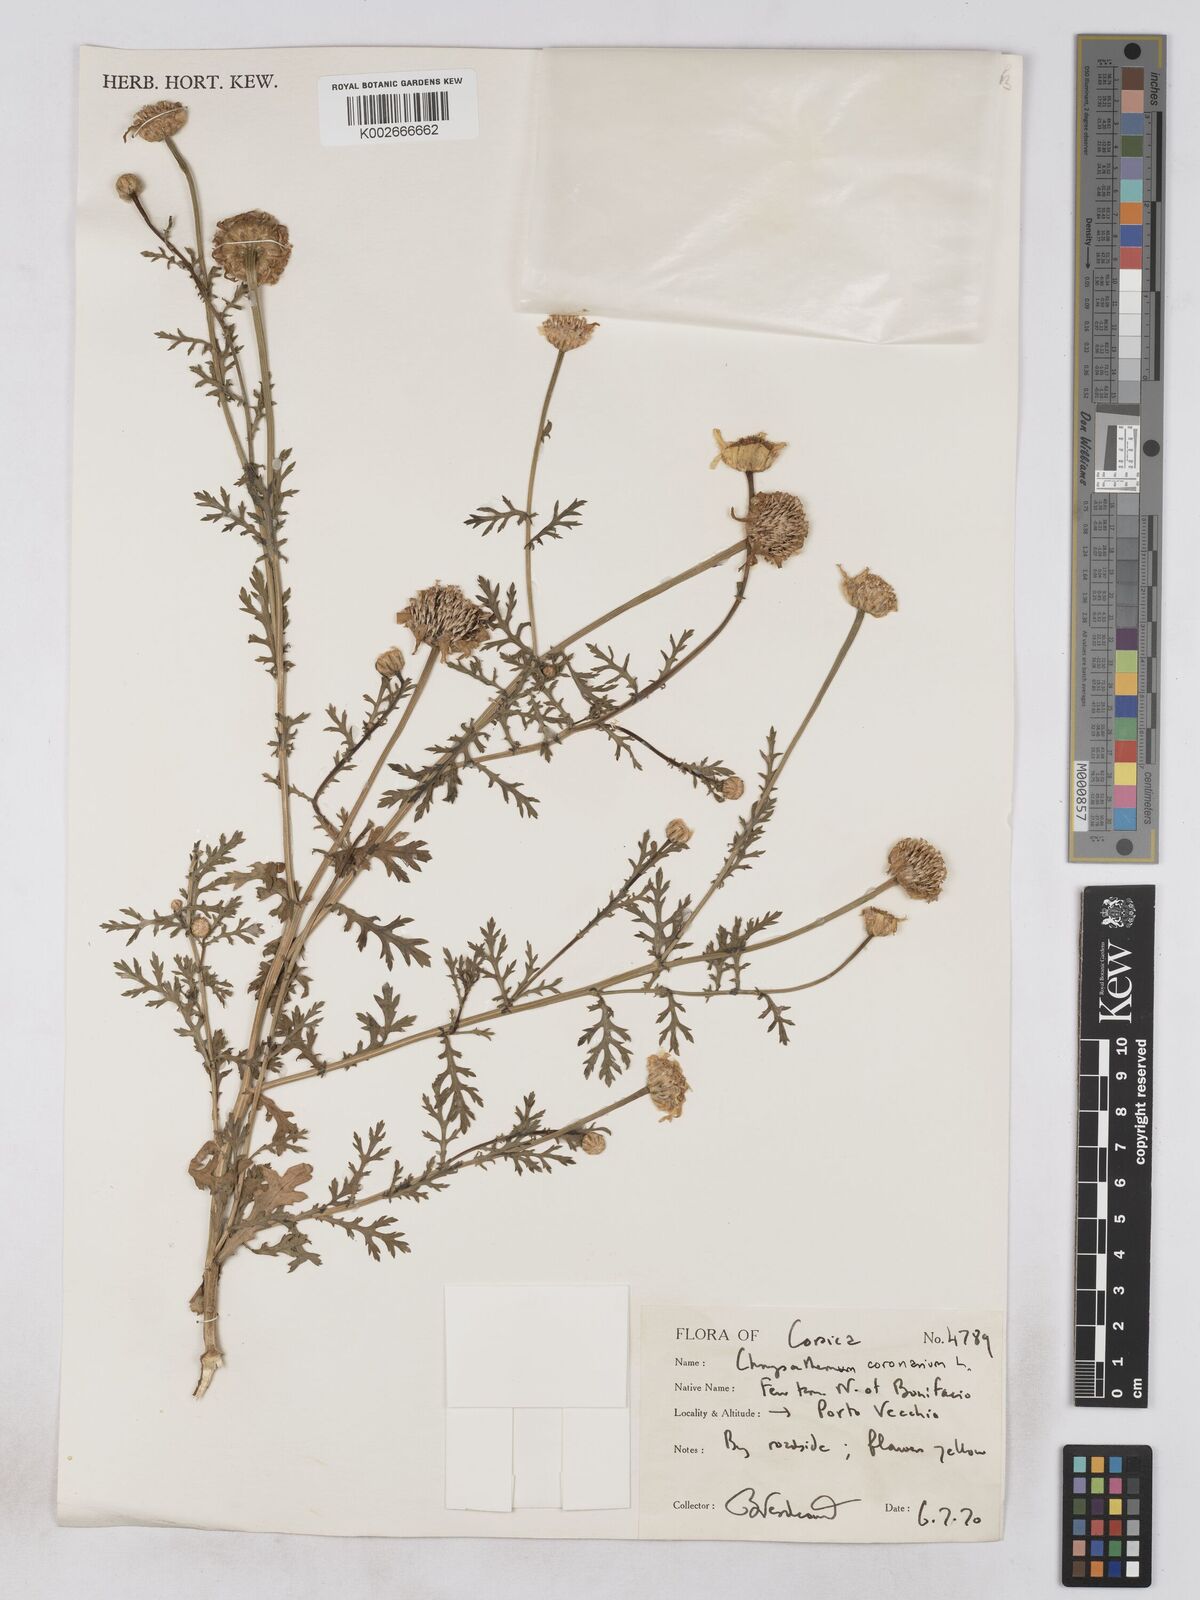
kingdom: Plantae
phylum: Tracheophyta
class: Magnoliopsida
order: Asterales
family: Asteraceae
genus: Glebionis
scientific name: Glebionis coronaria
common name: Crowndaisy
